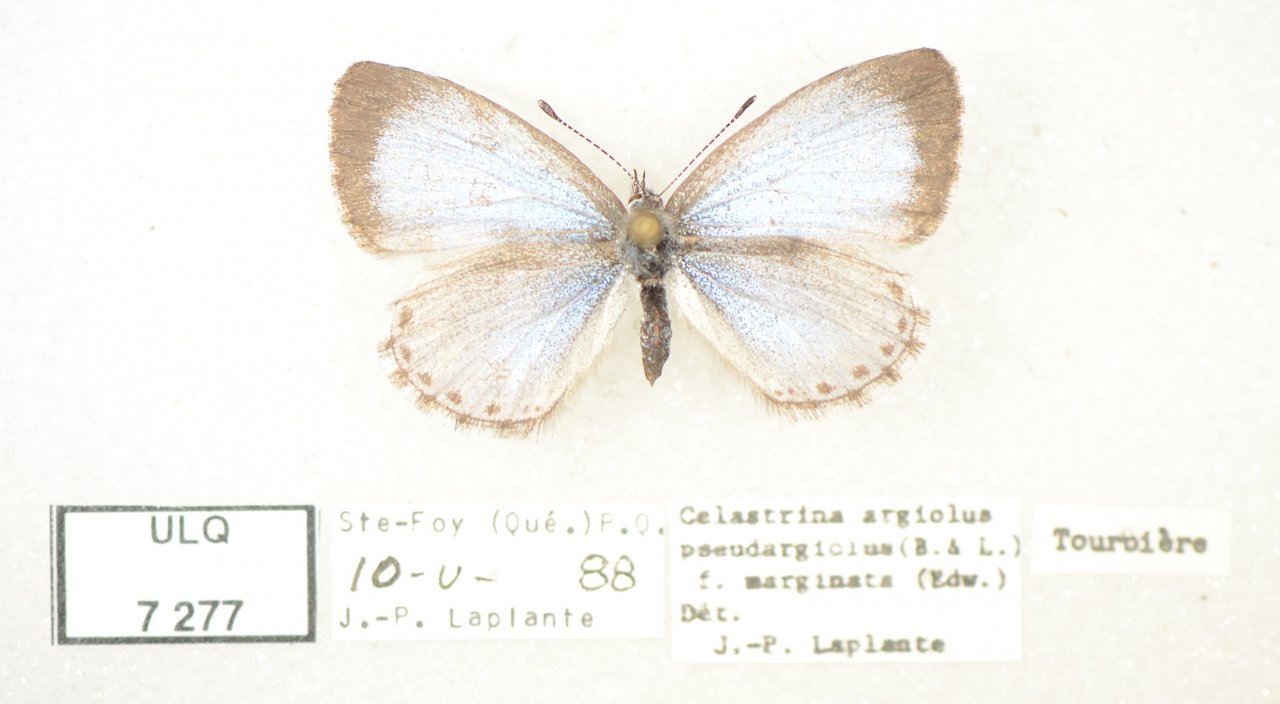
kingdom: Animalia
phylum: Arthropoda
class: Insecta
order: Lepidoptera
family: Lycaenidae
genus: Celastrina
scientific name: Celastrina lucia
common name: Northern Spring Azure
